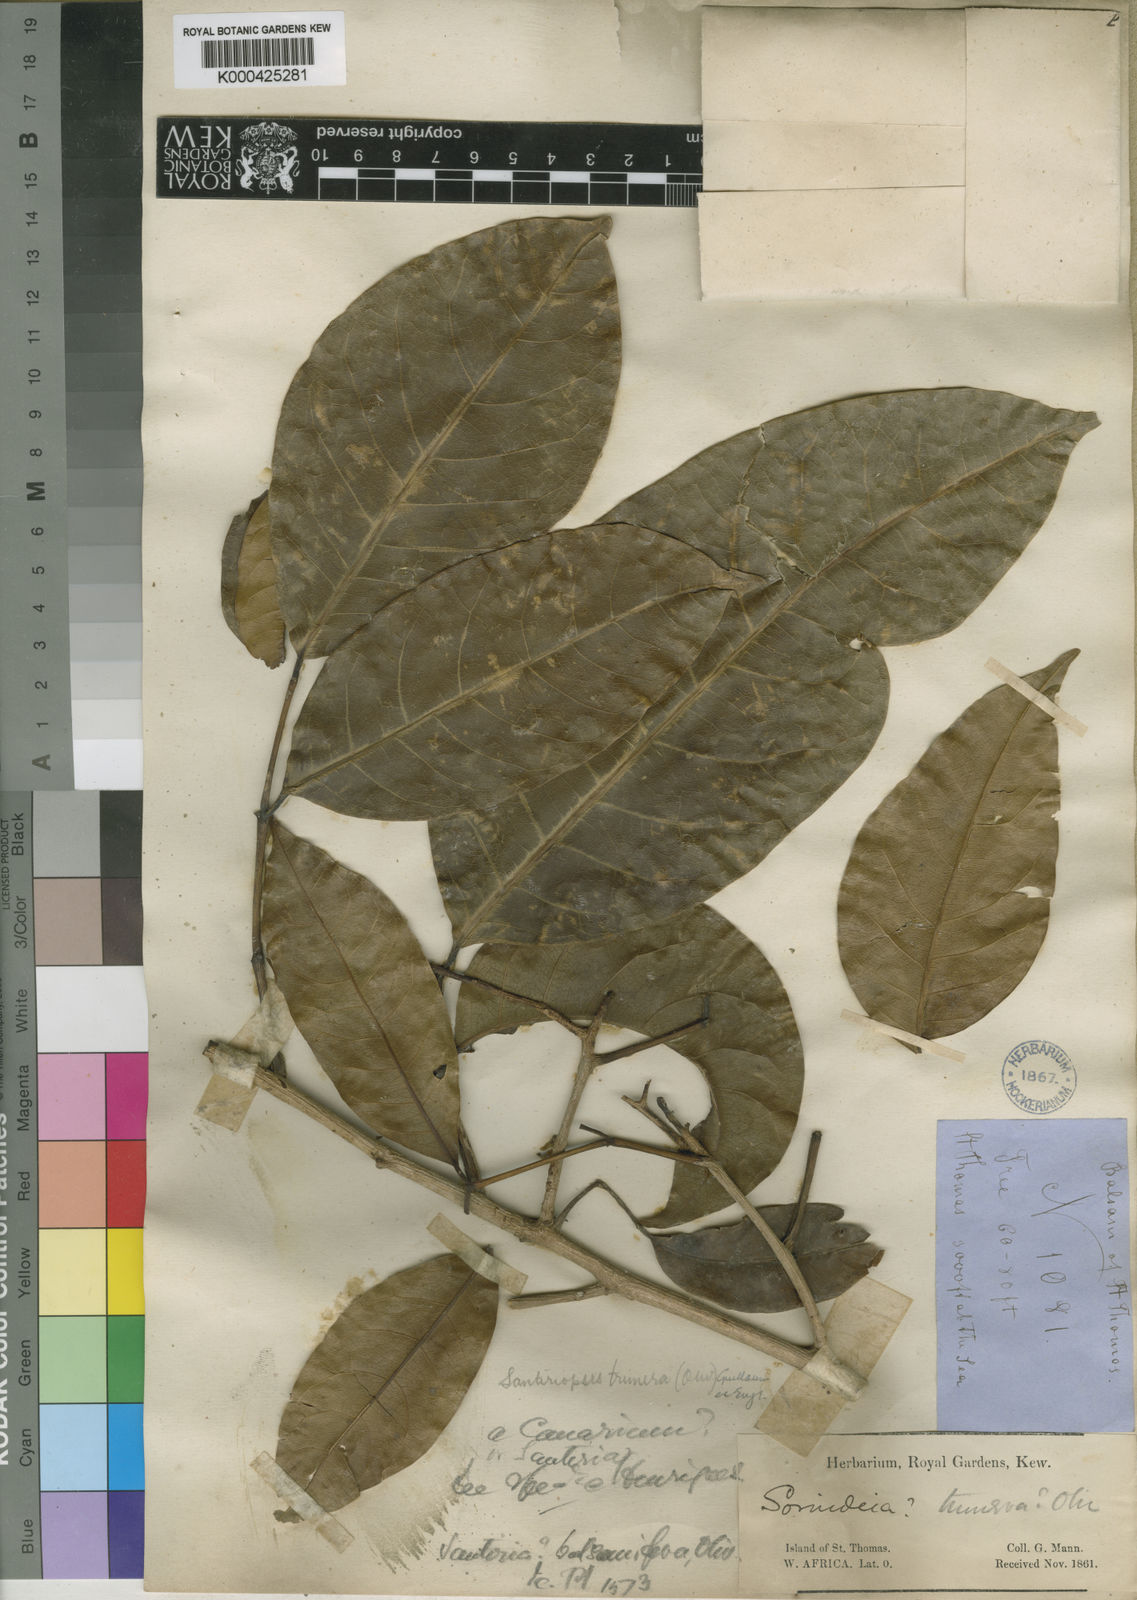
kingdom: Plantae
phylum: Tracheophyta
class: Magnoliopsida
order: Sapindales
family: Burseraceae
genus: Santiria
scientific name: Santiria
